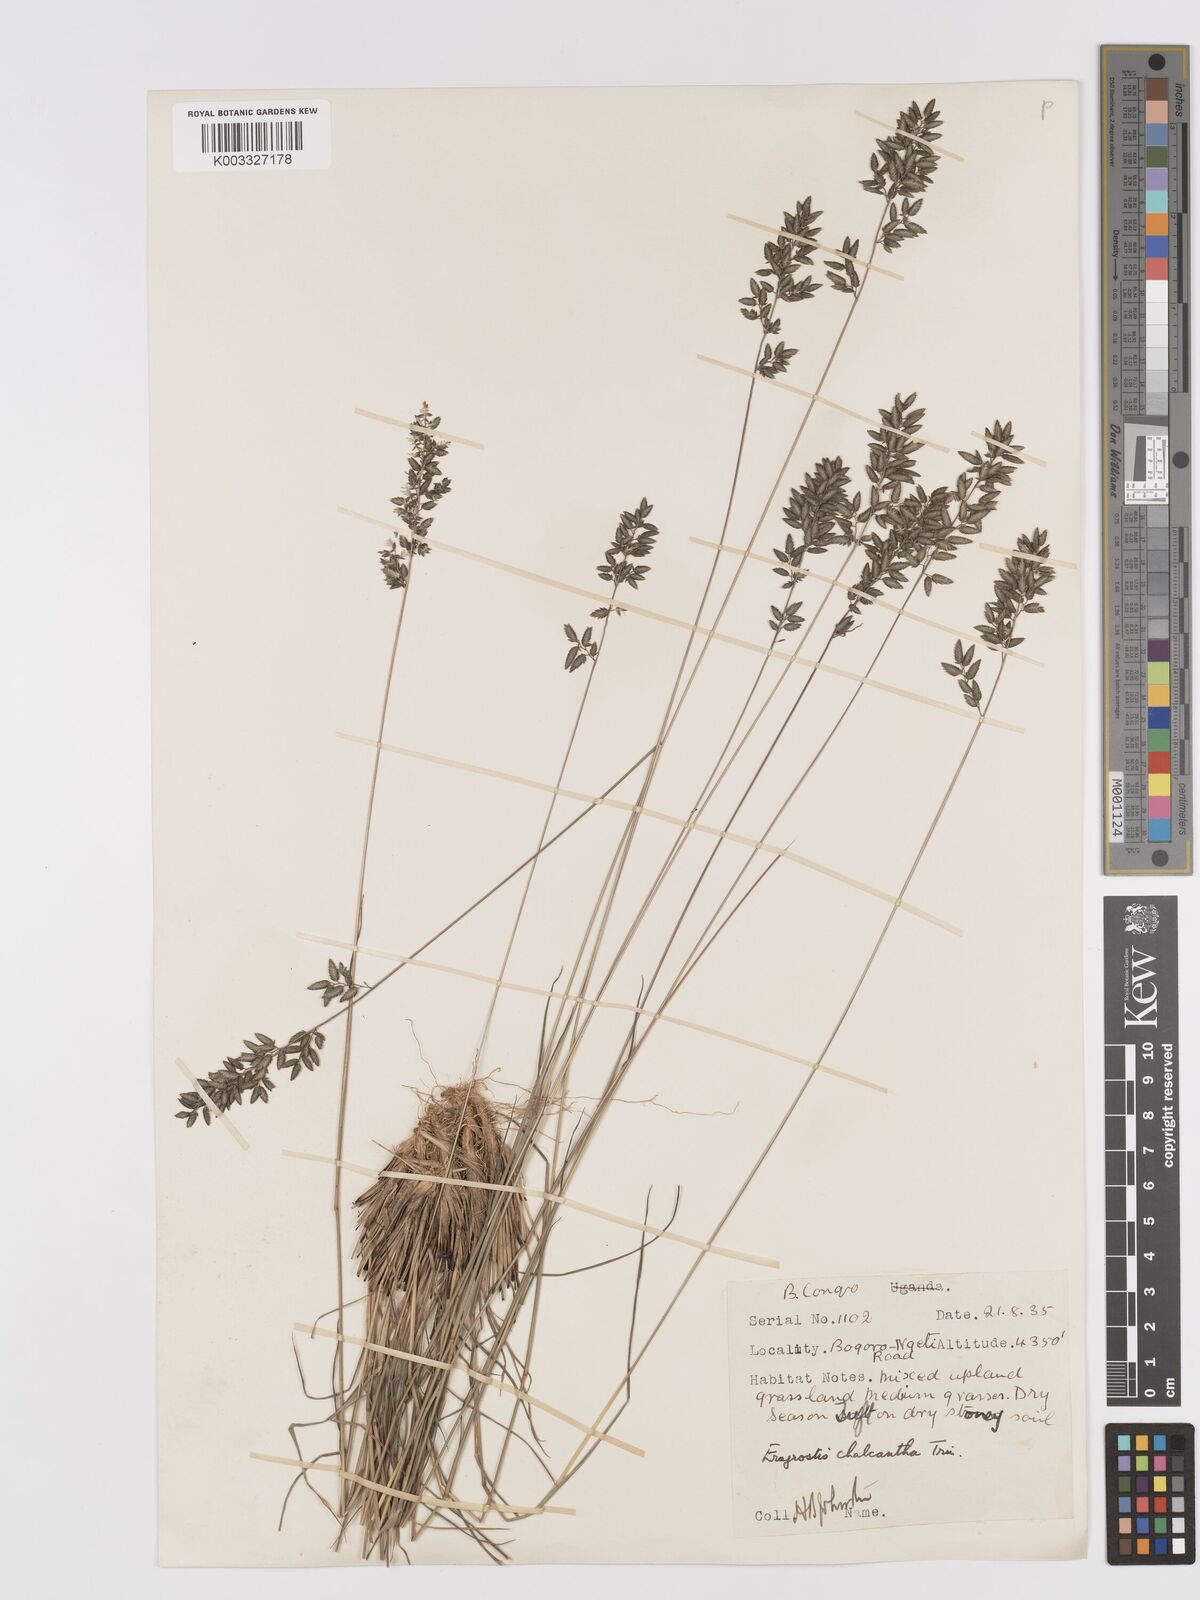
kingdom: Plantae
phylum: Tracheophyta
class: Liliopsida
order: Poales
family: Poaceae
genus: Eragrostis
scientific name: Eragrostis racemosa
